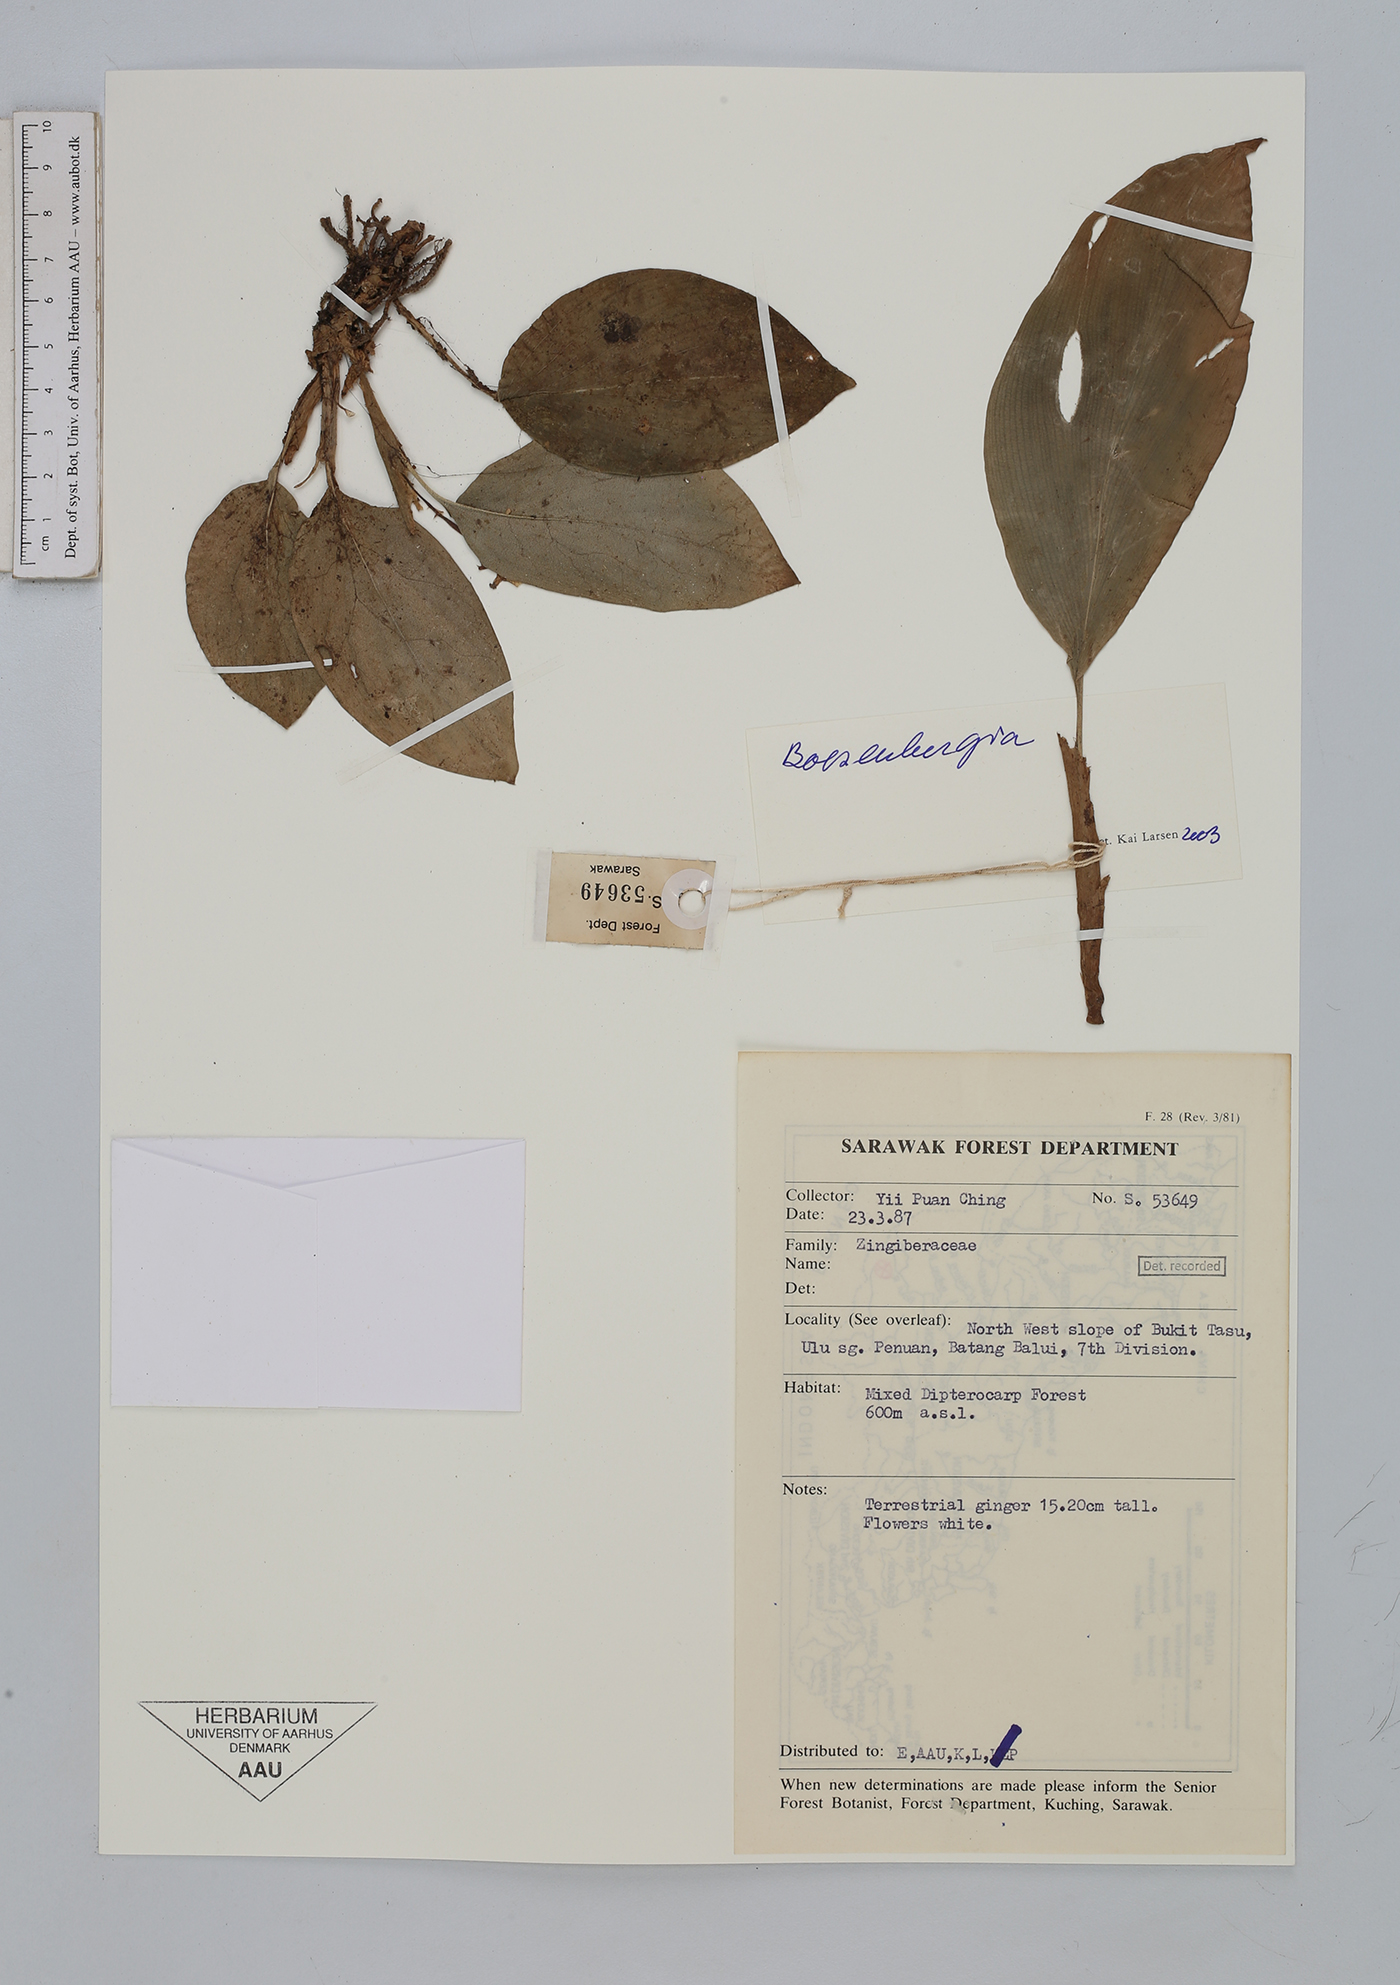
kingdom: Plantae
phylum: Tracheophyta
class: Liliopsida
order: Zingiberales
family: Zingiberaceae
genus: Boesenbergia
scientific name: Boesenbergia
